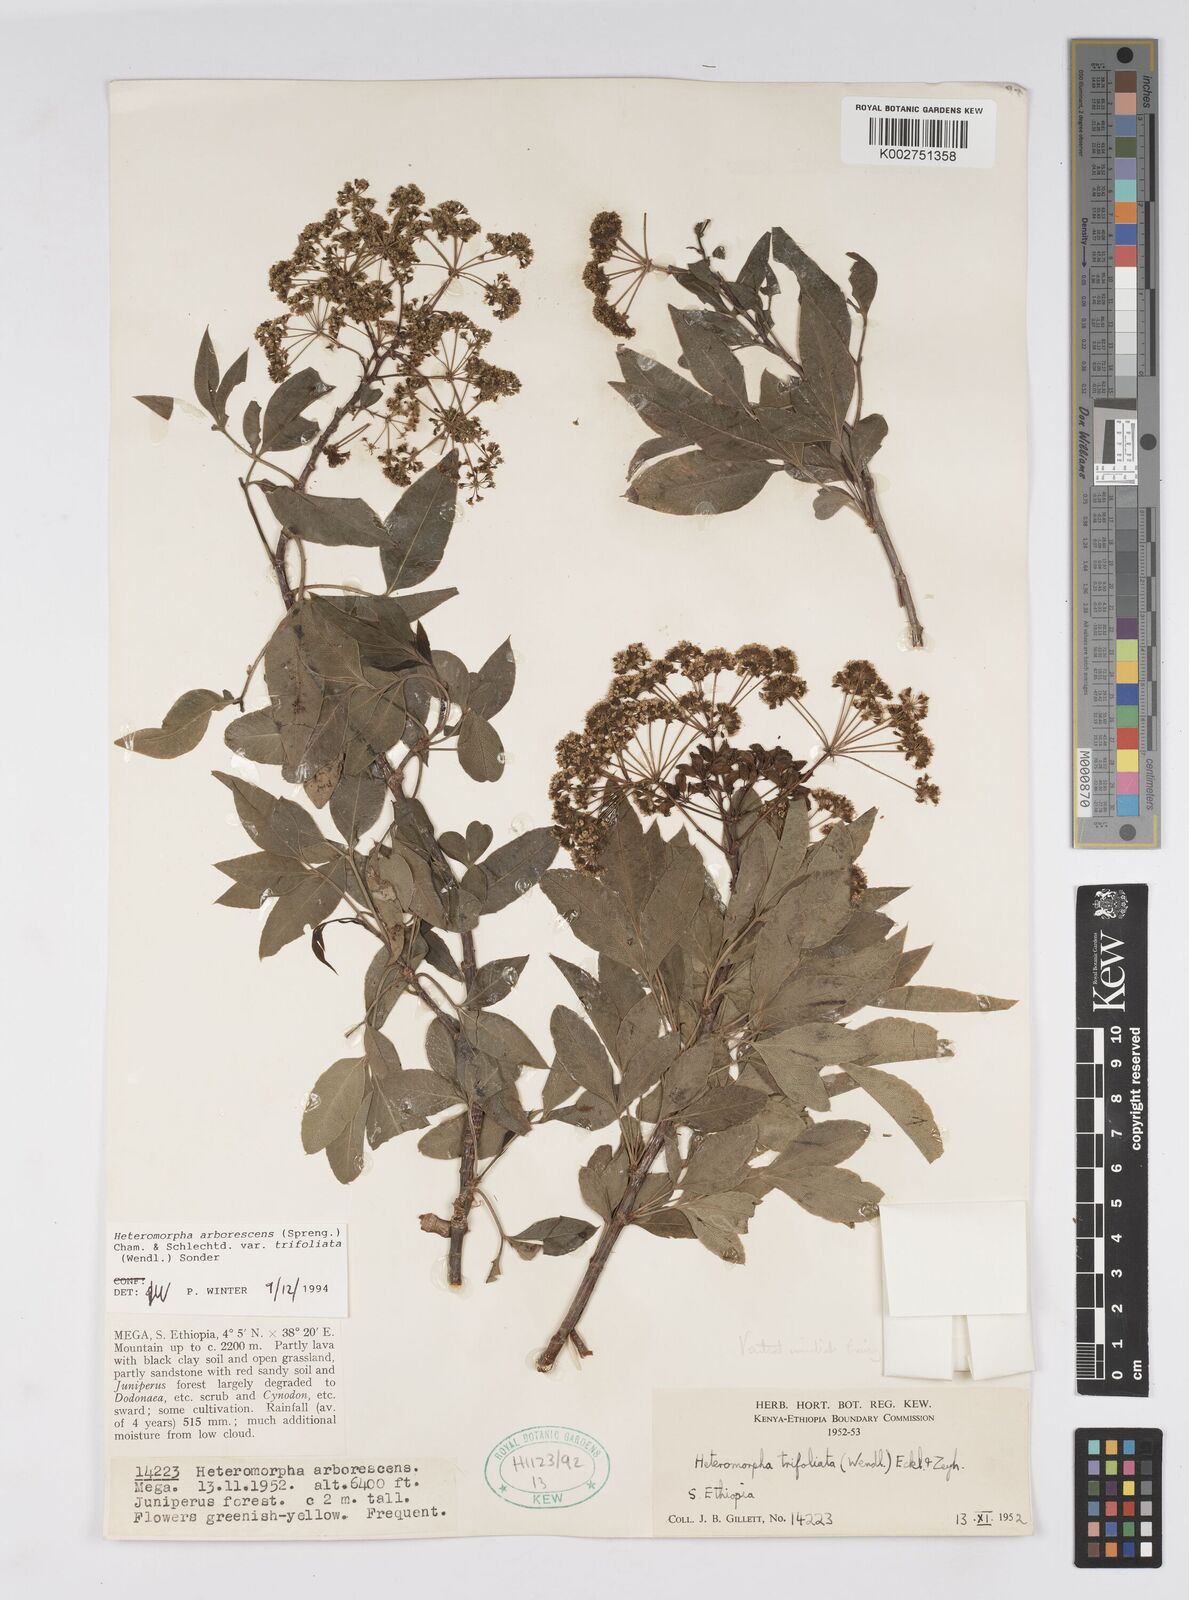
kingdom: Plantae
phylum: Tracheophyta
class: Magnoliopsida
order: Apiales
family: Apiaceae
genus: Heteromorpha
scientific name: Heteromorpha arborescens
